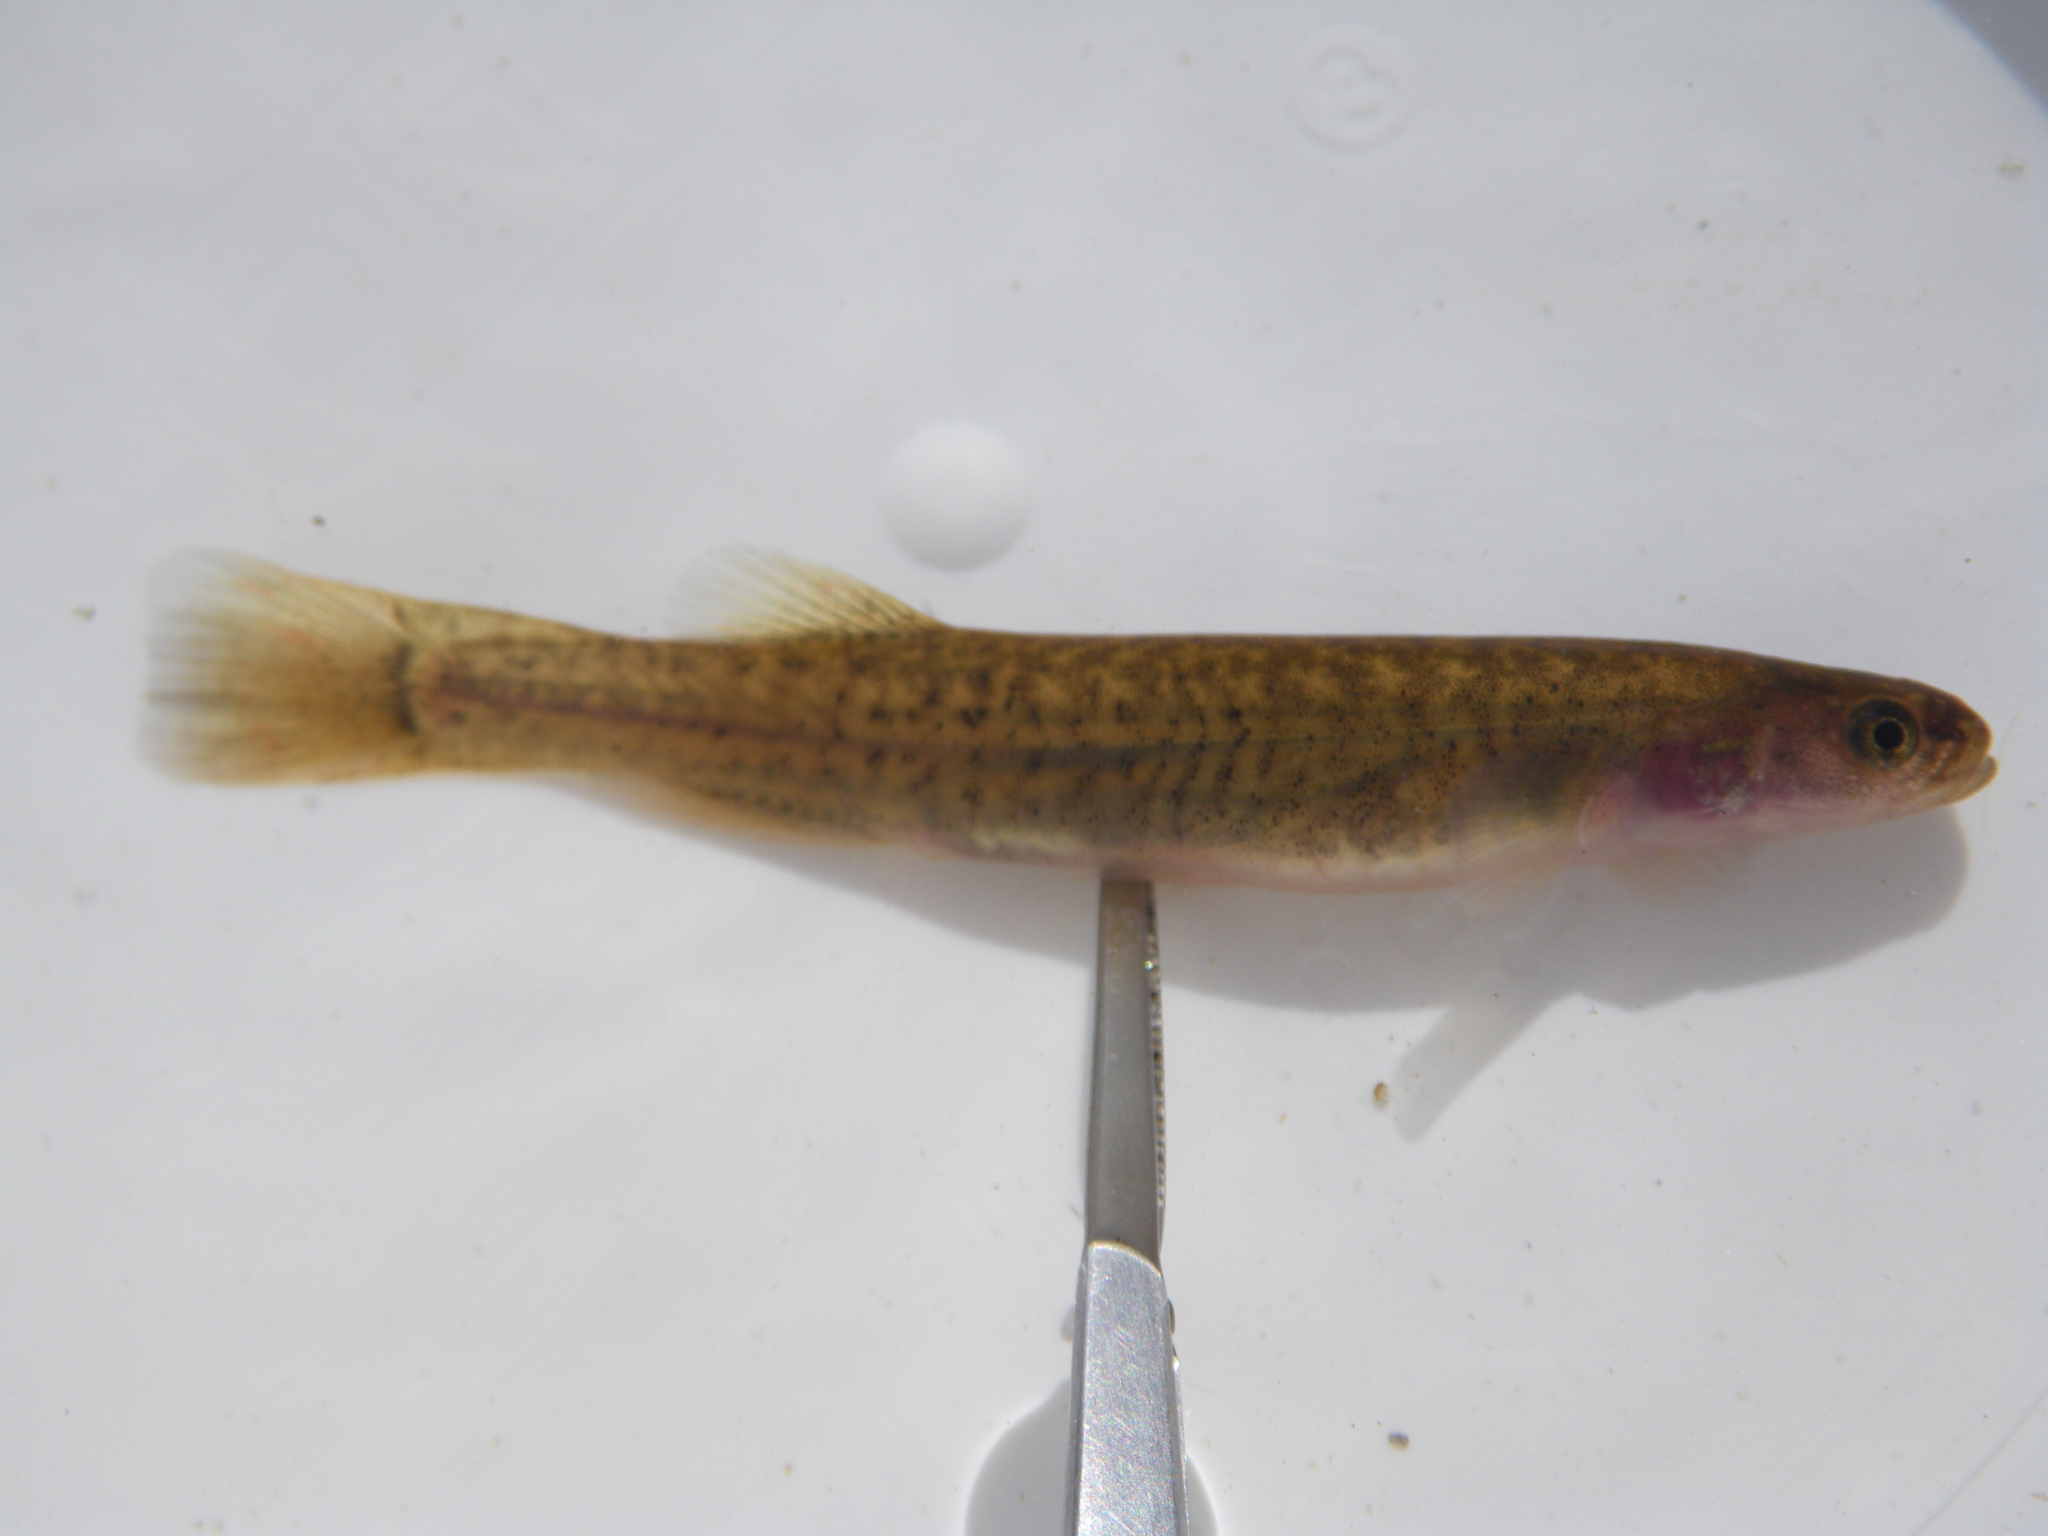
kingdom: Animalia
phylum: Chordata
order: Osmeriformes
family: Galaxiidae
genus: Galaxias
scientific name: Galaxias
